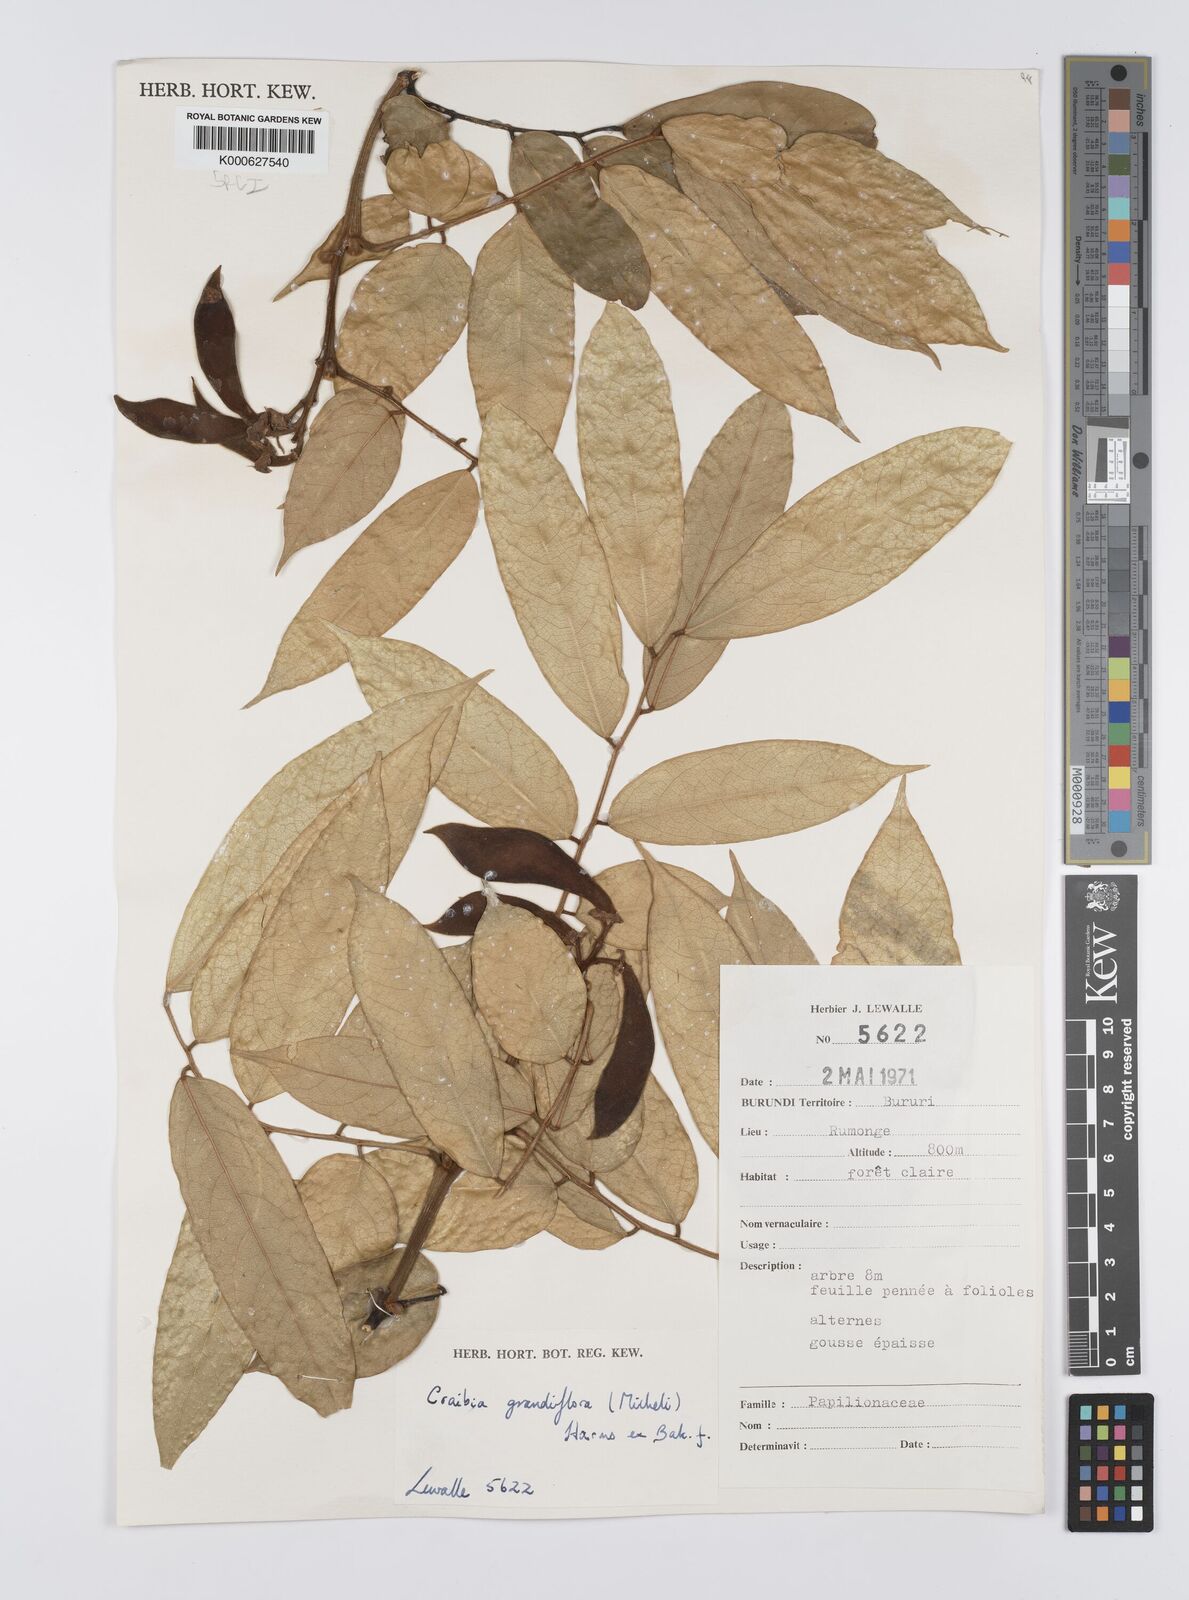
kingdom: Plantae
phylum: Tracheophyta
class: Magnoliopsida
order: Fabales
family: Fabaceae
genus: Craibia
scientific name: Craibia grandiflora
